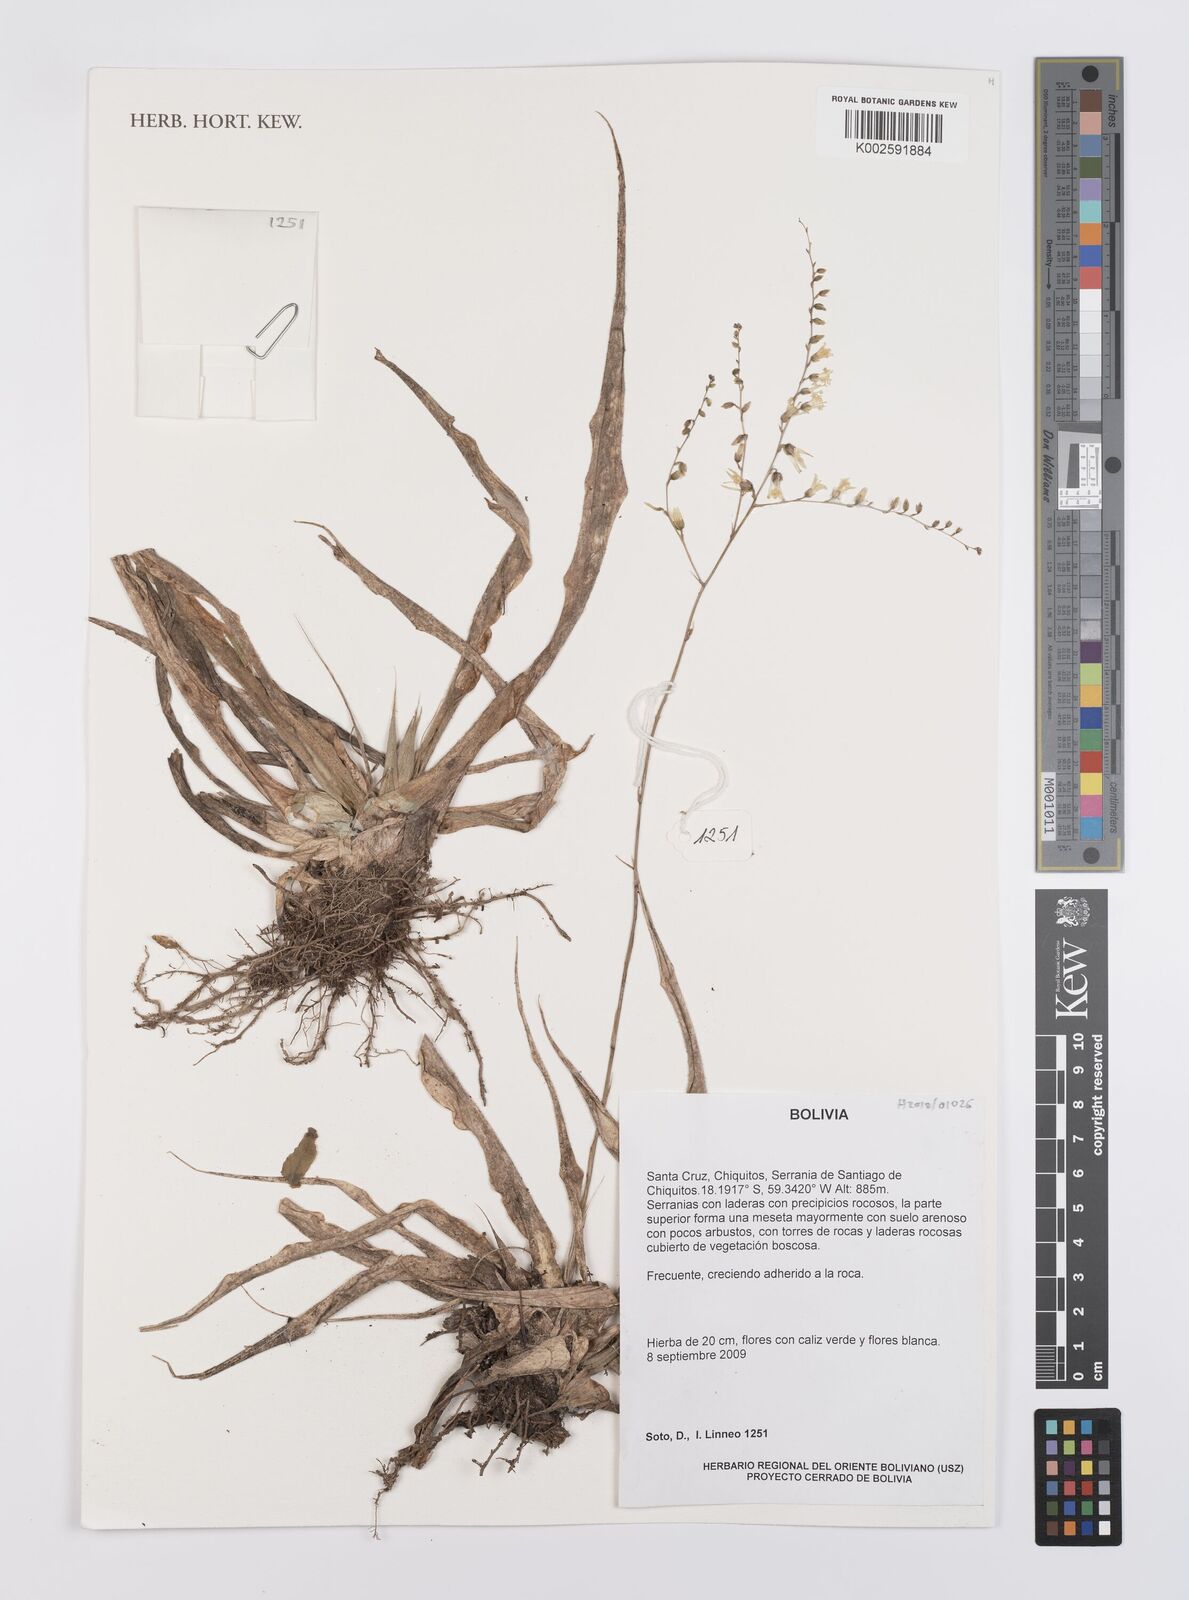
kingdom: Plantae
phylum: Tracheophyta
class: Liliopsida
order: Poales
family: Bromeliaceae
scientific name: Bromeliaceae
